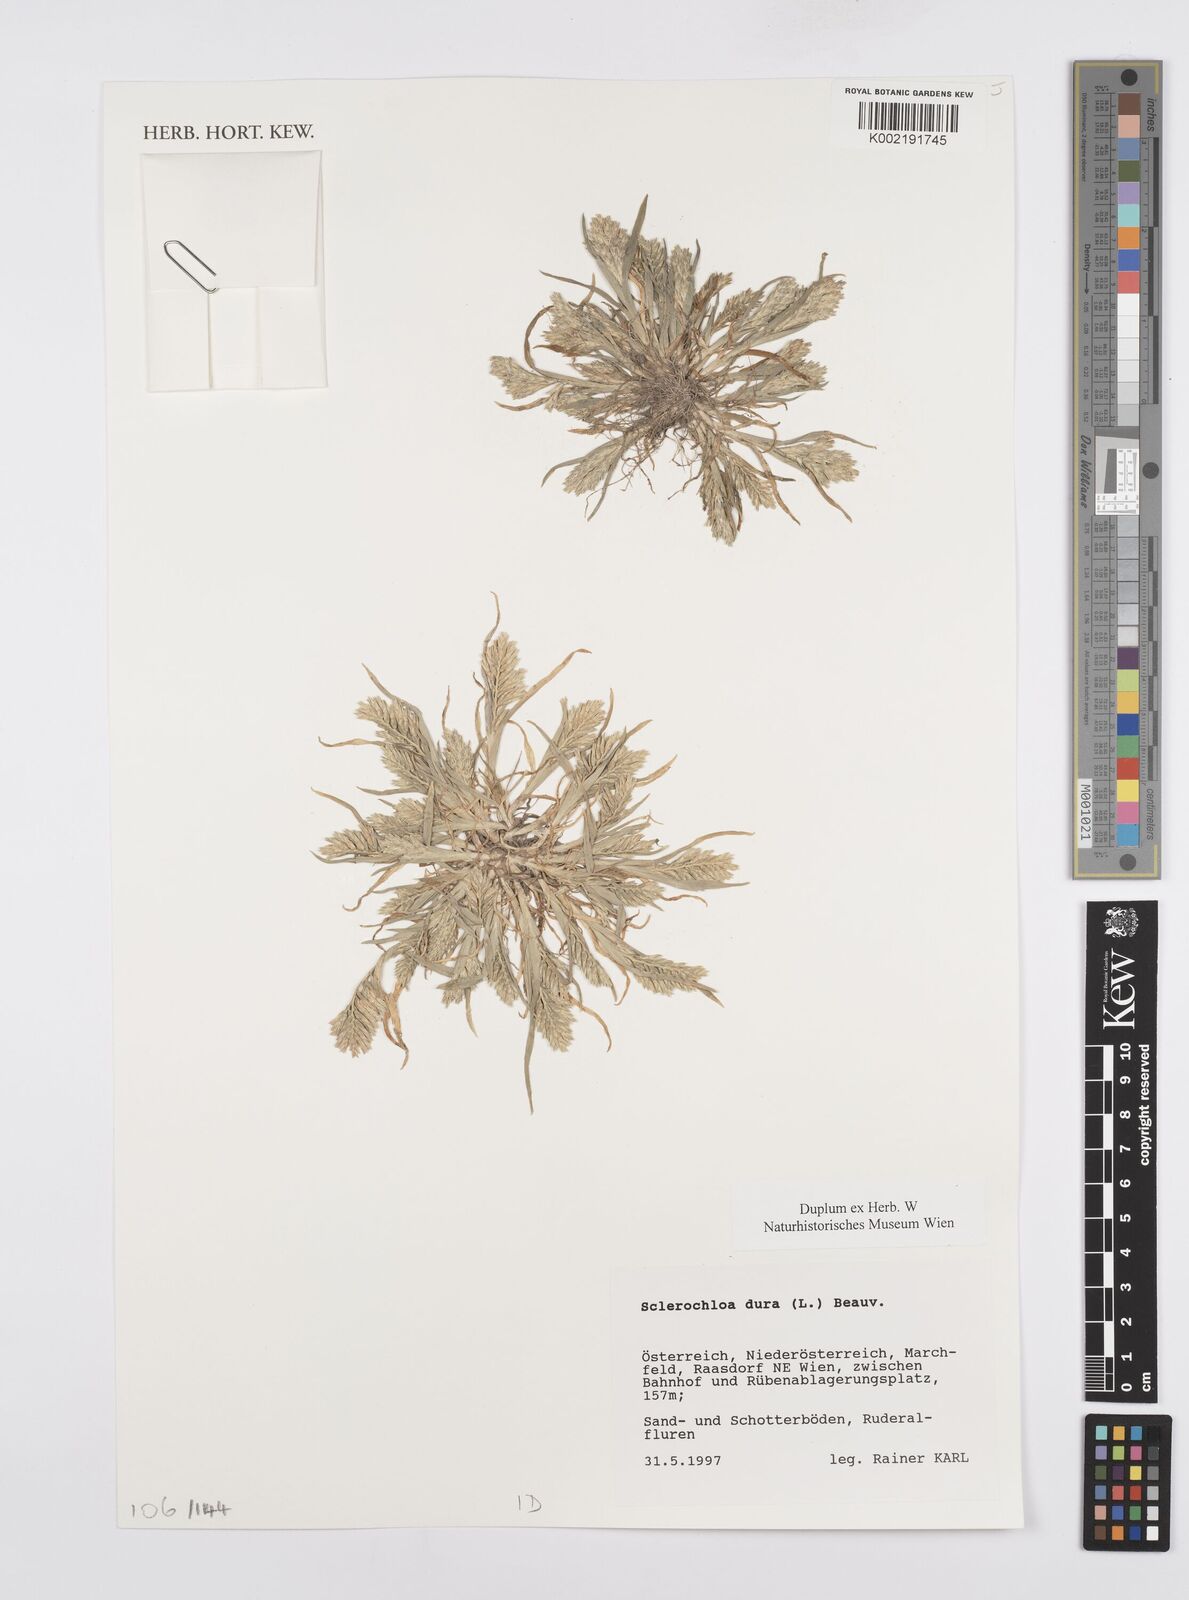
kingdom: Plantae
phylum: Tracheophyta
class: Liliopsida
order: Poales
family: Poaceae
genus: Sclerochloa
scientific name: Sclerochloa dura
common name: Common hardgrass
